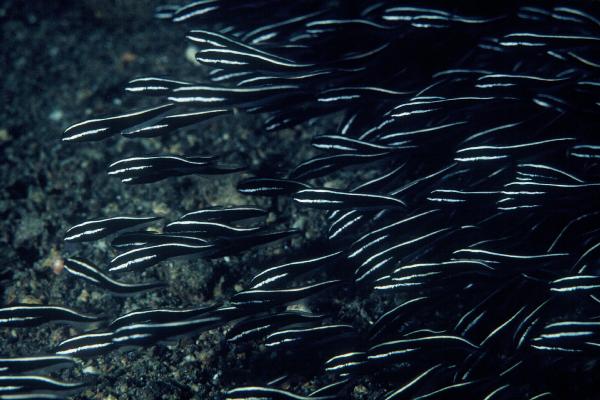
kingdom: Animalia
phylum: Chordata
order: Perciformes
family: Pholidichthyidae
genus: Pholidichthys
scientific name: Pholidichthys
